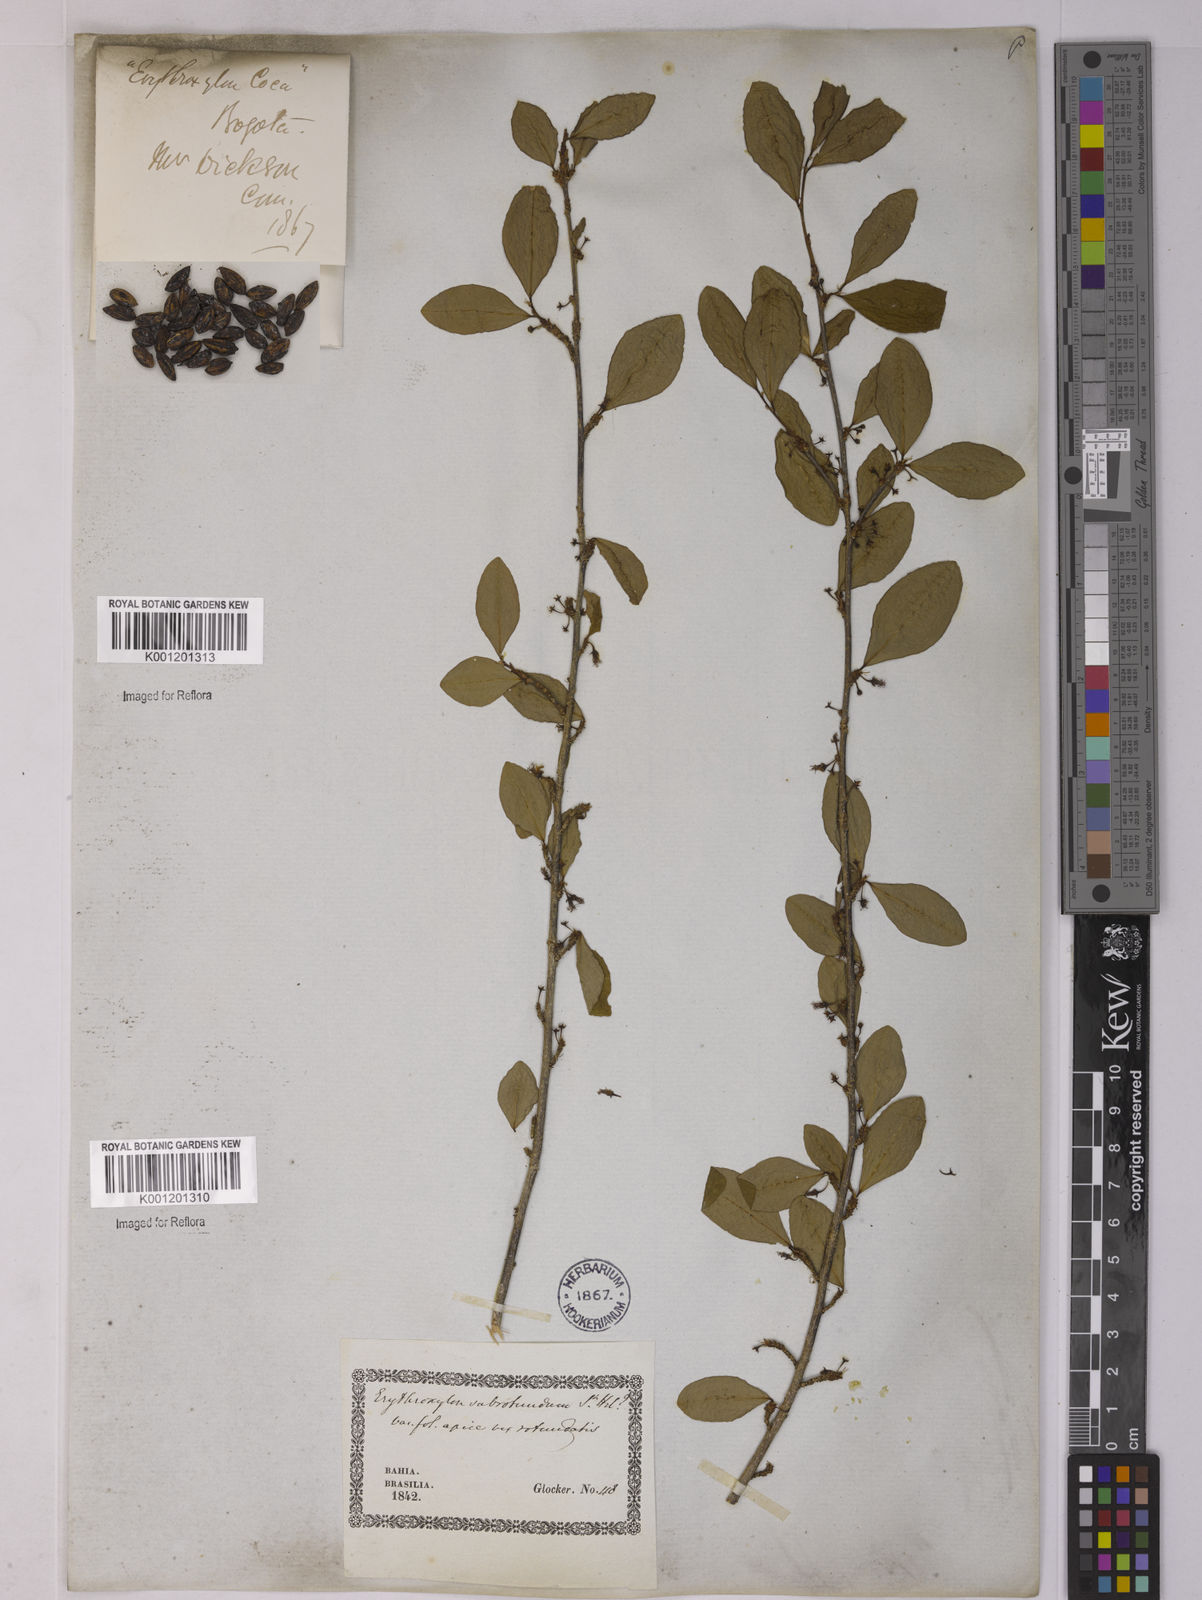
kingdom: Plantae
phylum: Tracheophyta
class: Magnoliopsida
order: Malpighiales
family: Erythroxylaceae
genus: Erythroxylum
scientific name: Erythroxylum subrotundum
